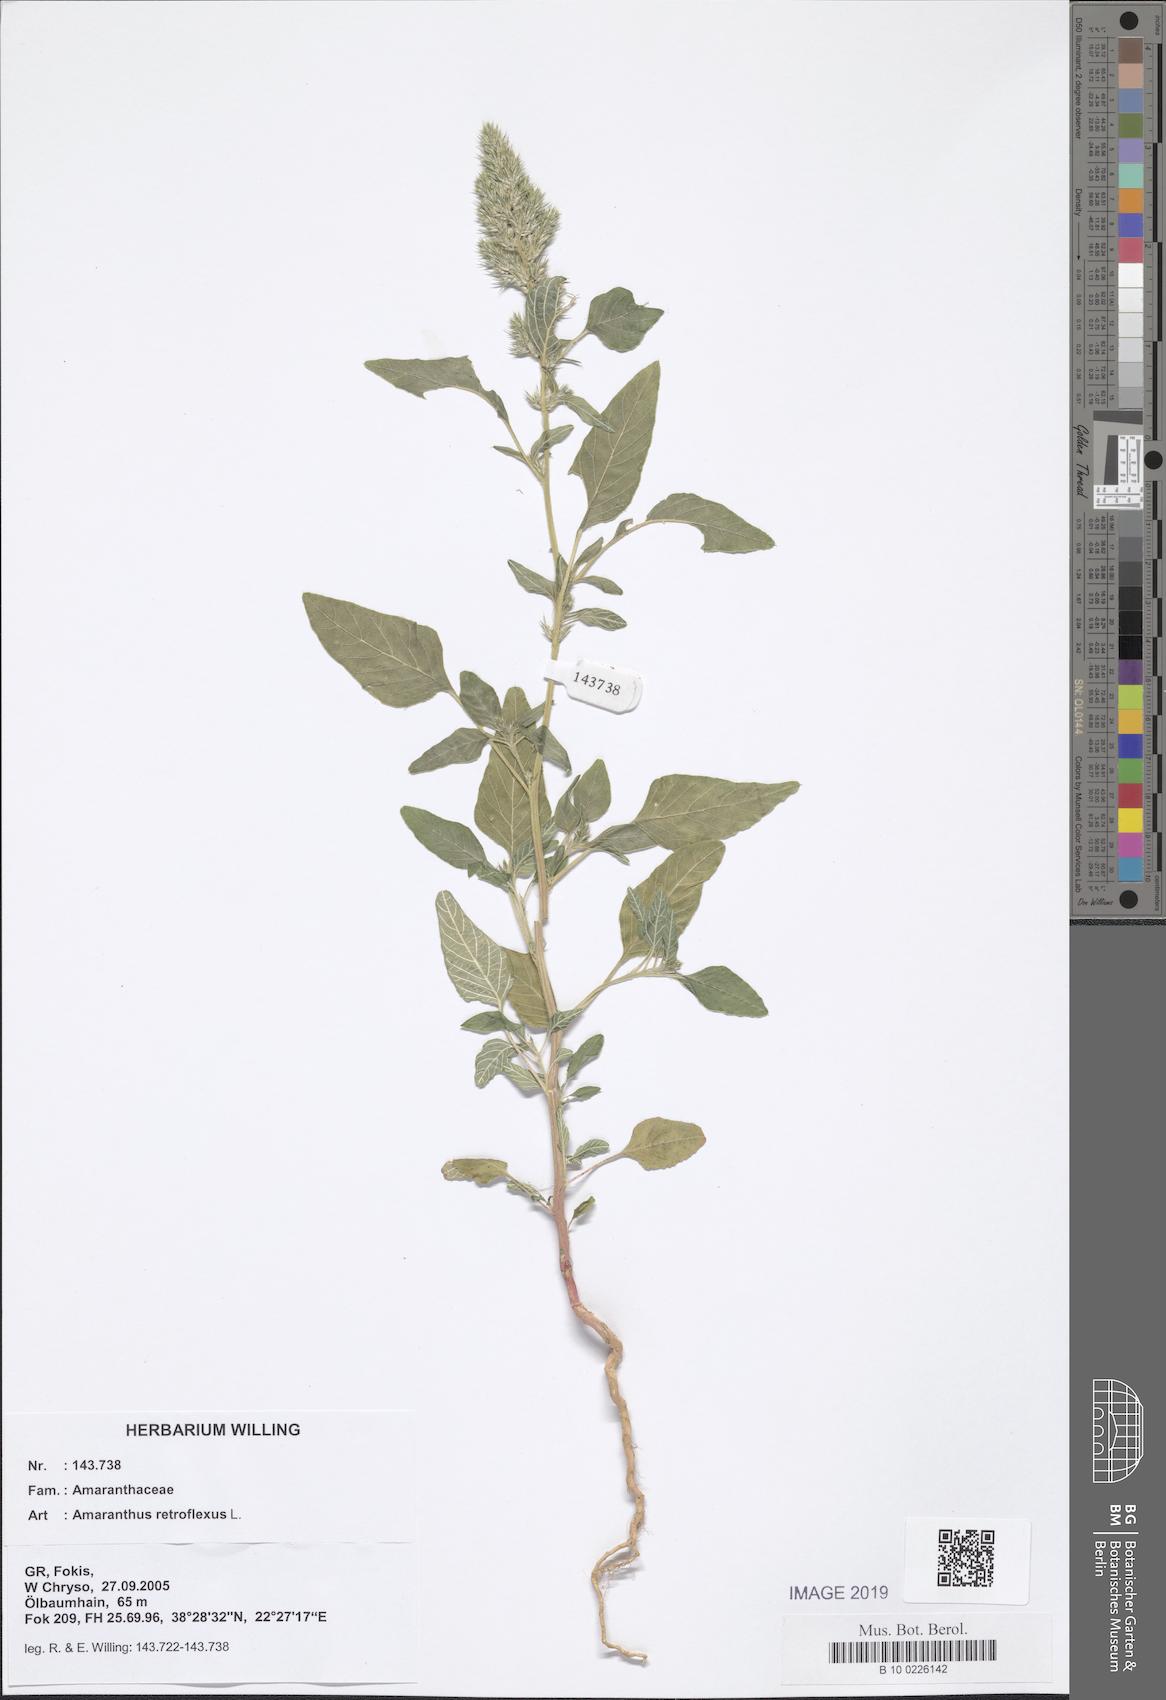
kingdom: Plantae
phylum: Tracheophyta
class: Magnoliopsida
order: Caryophyllales
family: Amaranthaceae
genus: Amaranthus
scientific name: Amaranthus retroflexus
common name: Redroot amaranth
